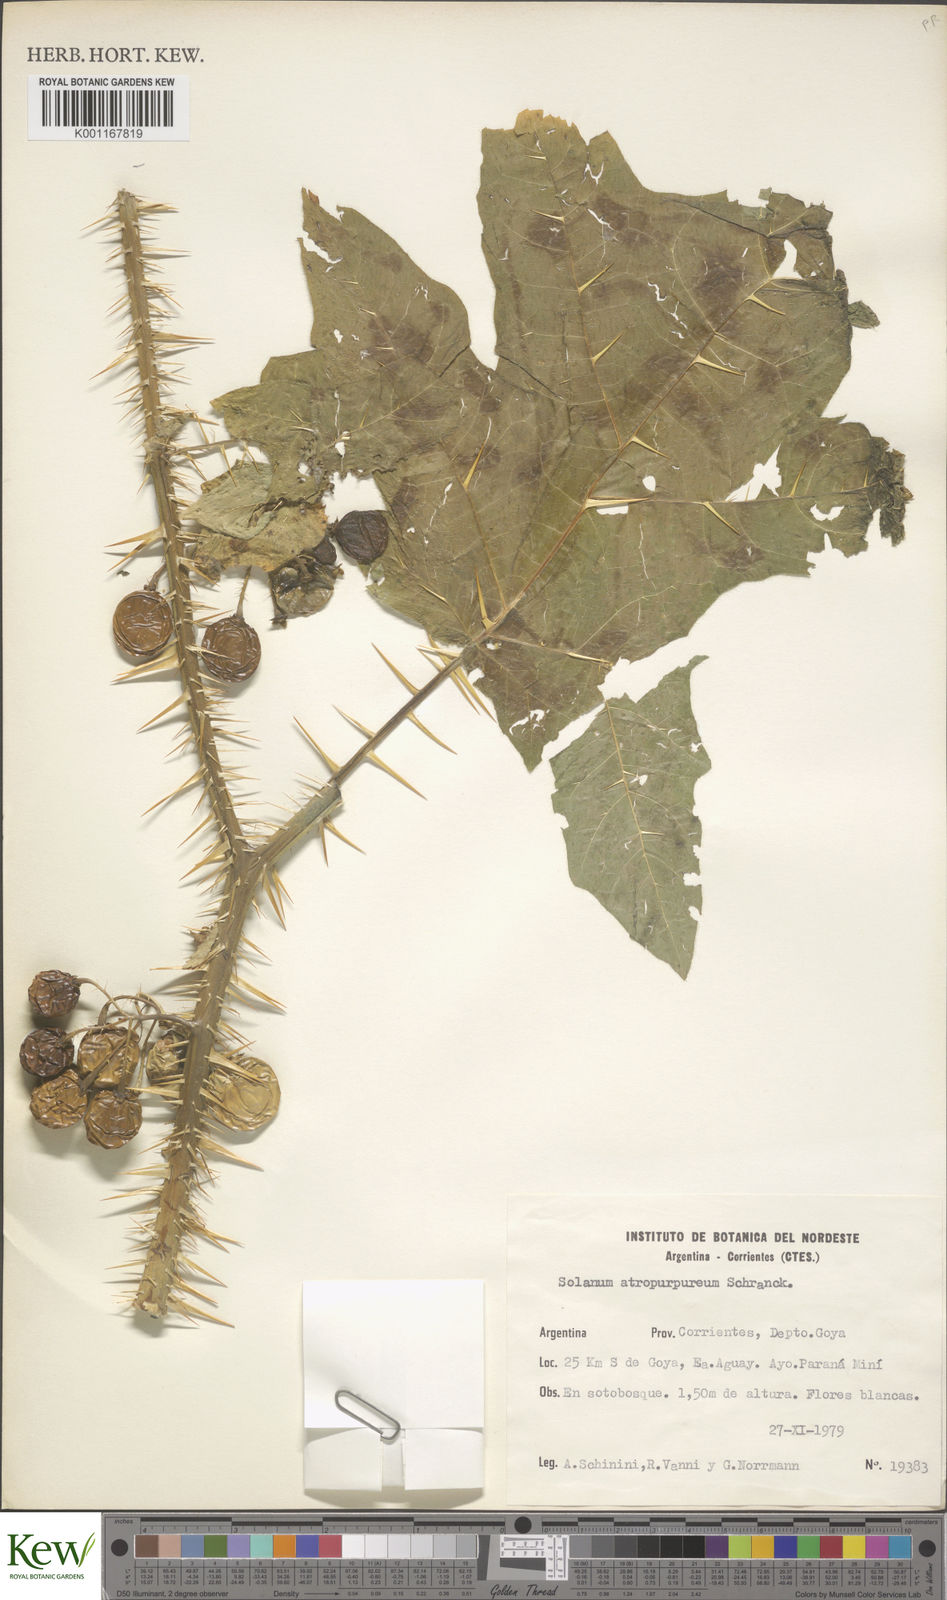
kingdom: Plantae
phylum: Tracheophyta
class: Magnoliopsida
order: Solanales
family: Solanaceae
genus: Solanum
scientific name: Solanum atropurpureum
